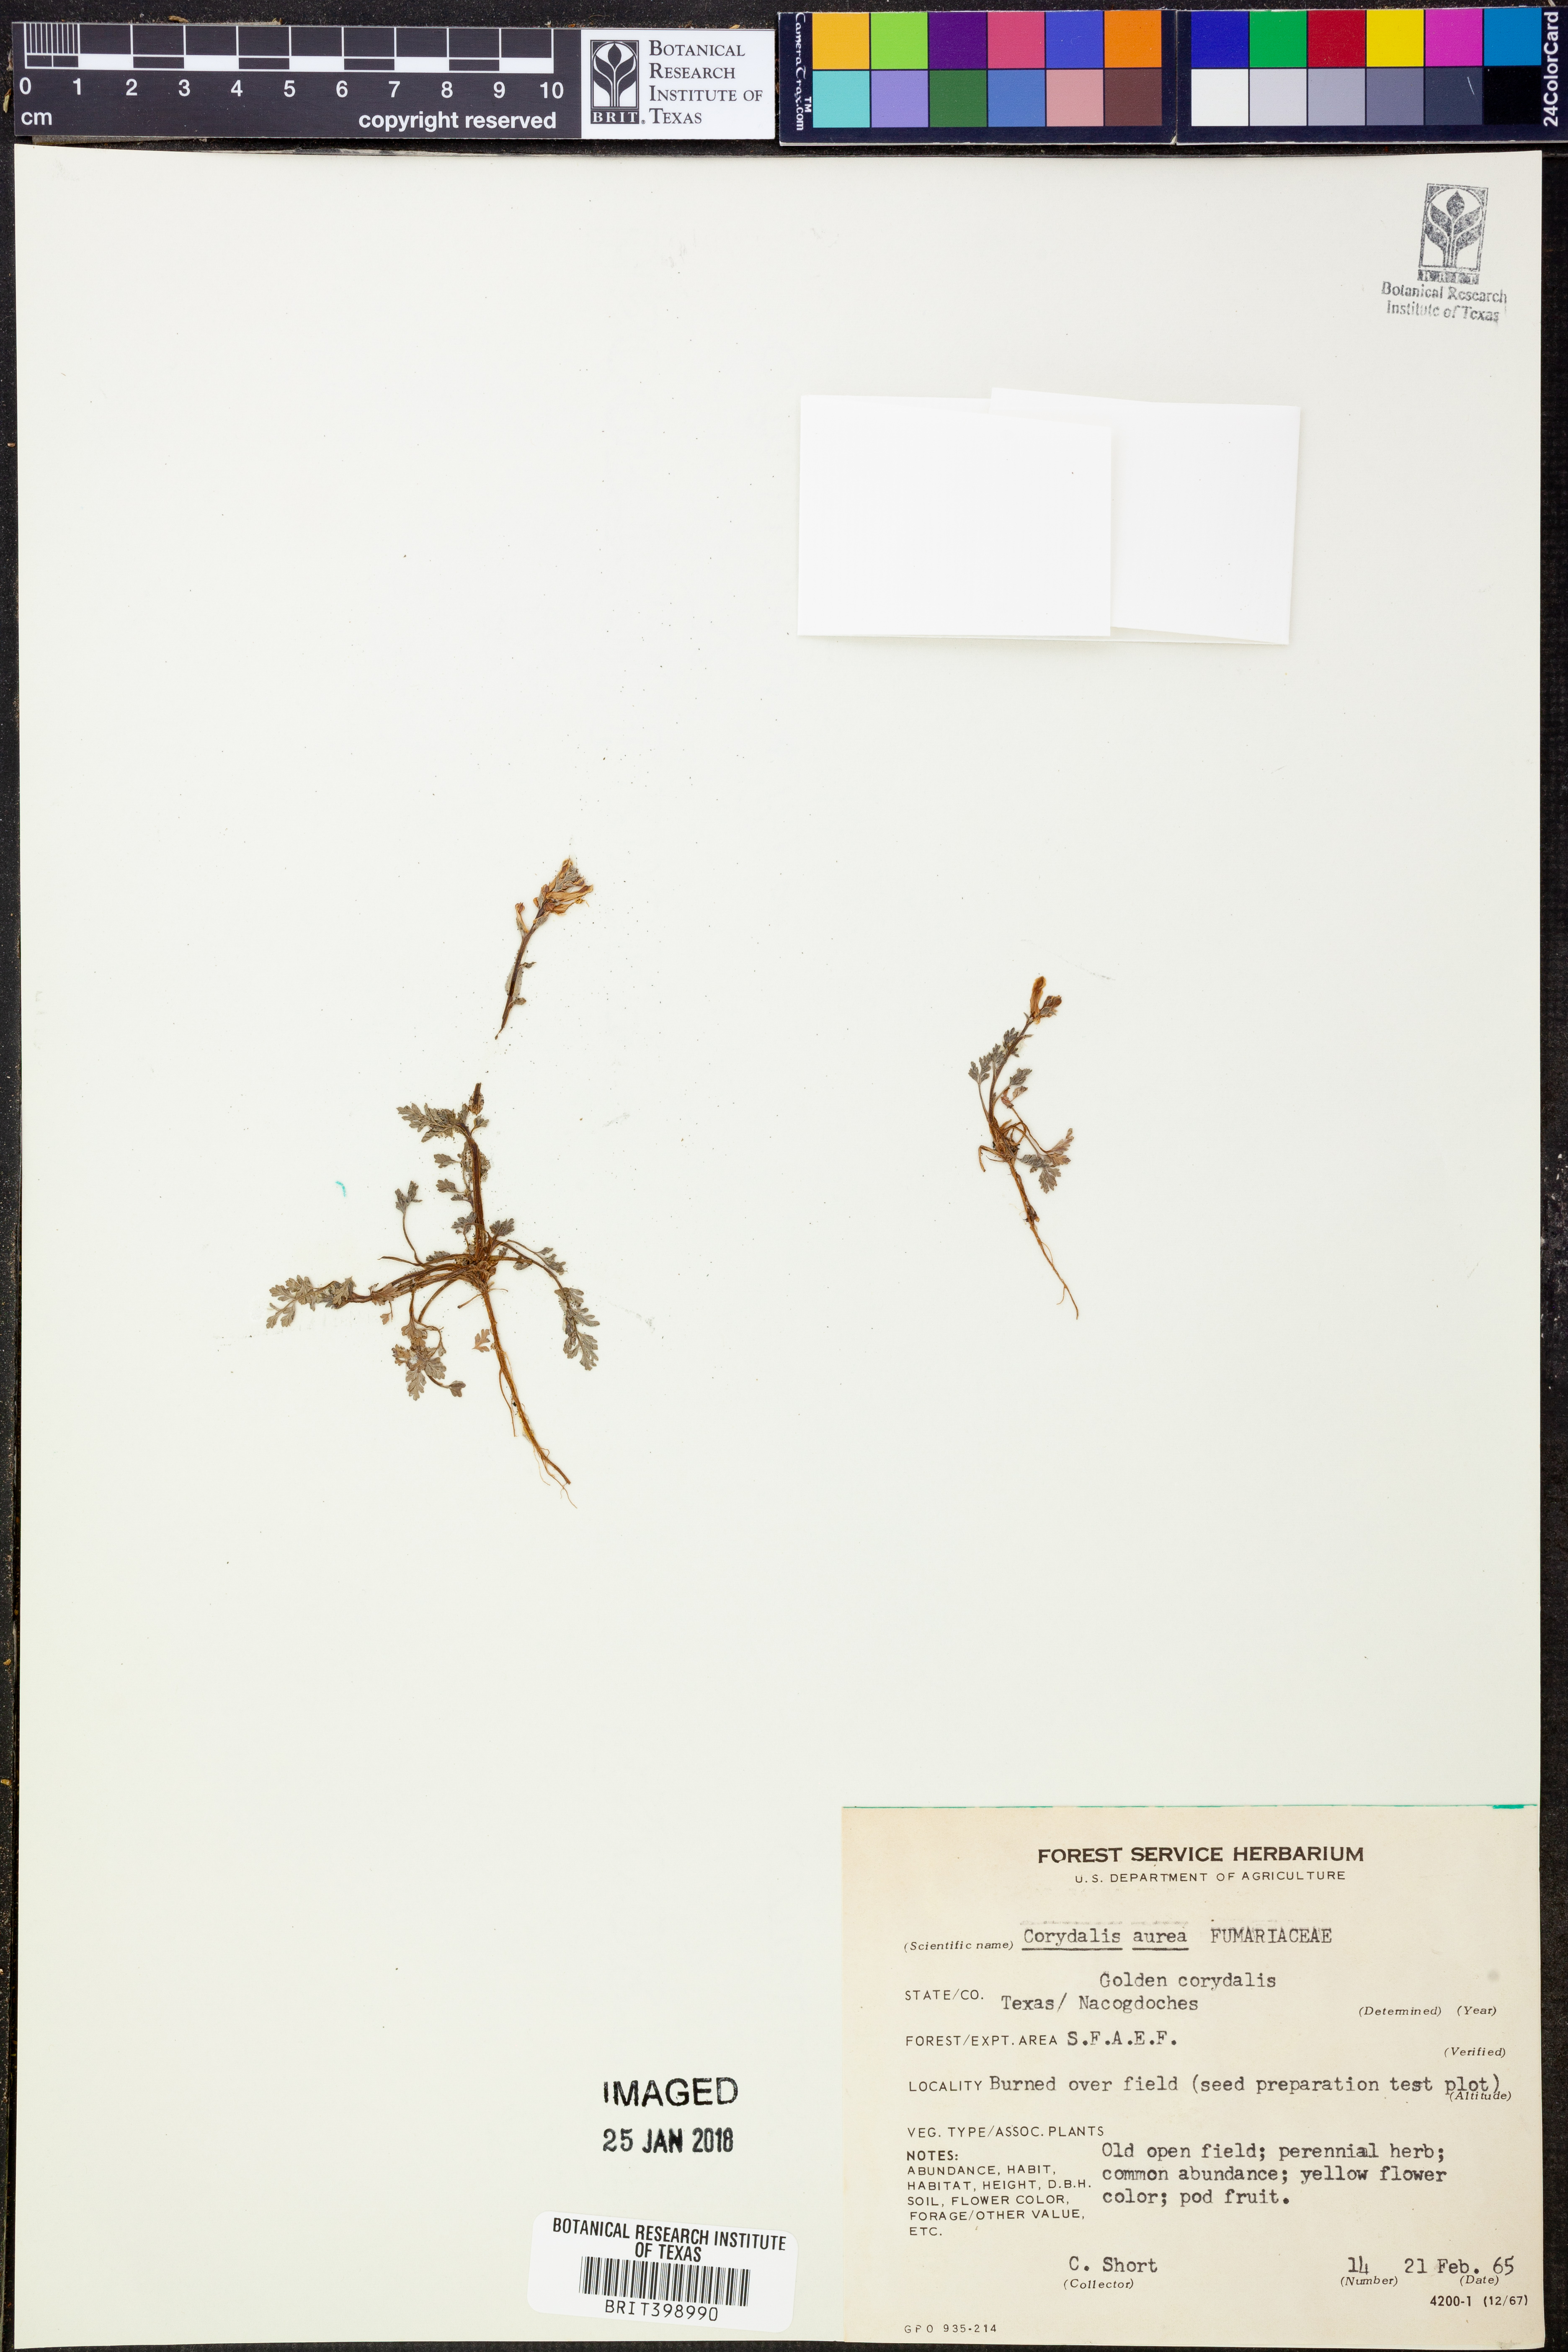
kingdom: Plantae
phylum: Tracheophyta
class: Magnoliopsida
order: Ranunculales
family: Papaveraceae
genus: Corydalis
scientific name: Corydalis aurea
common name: Golden corydalis
